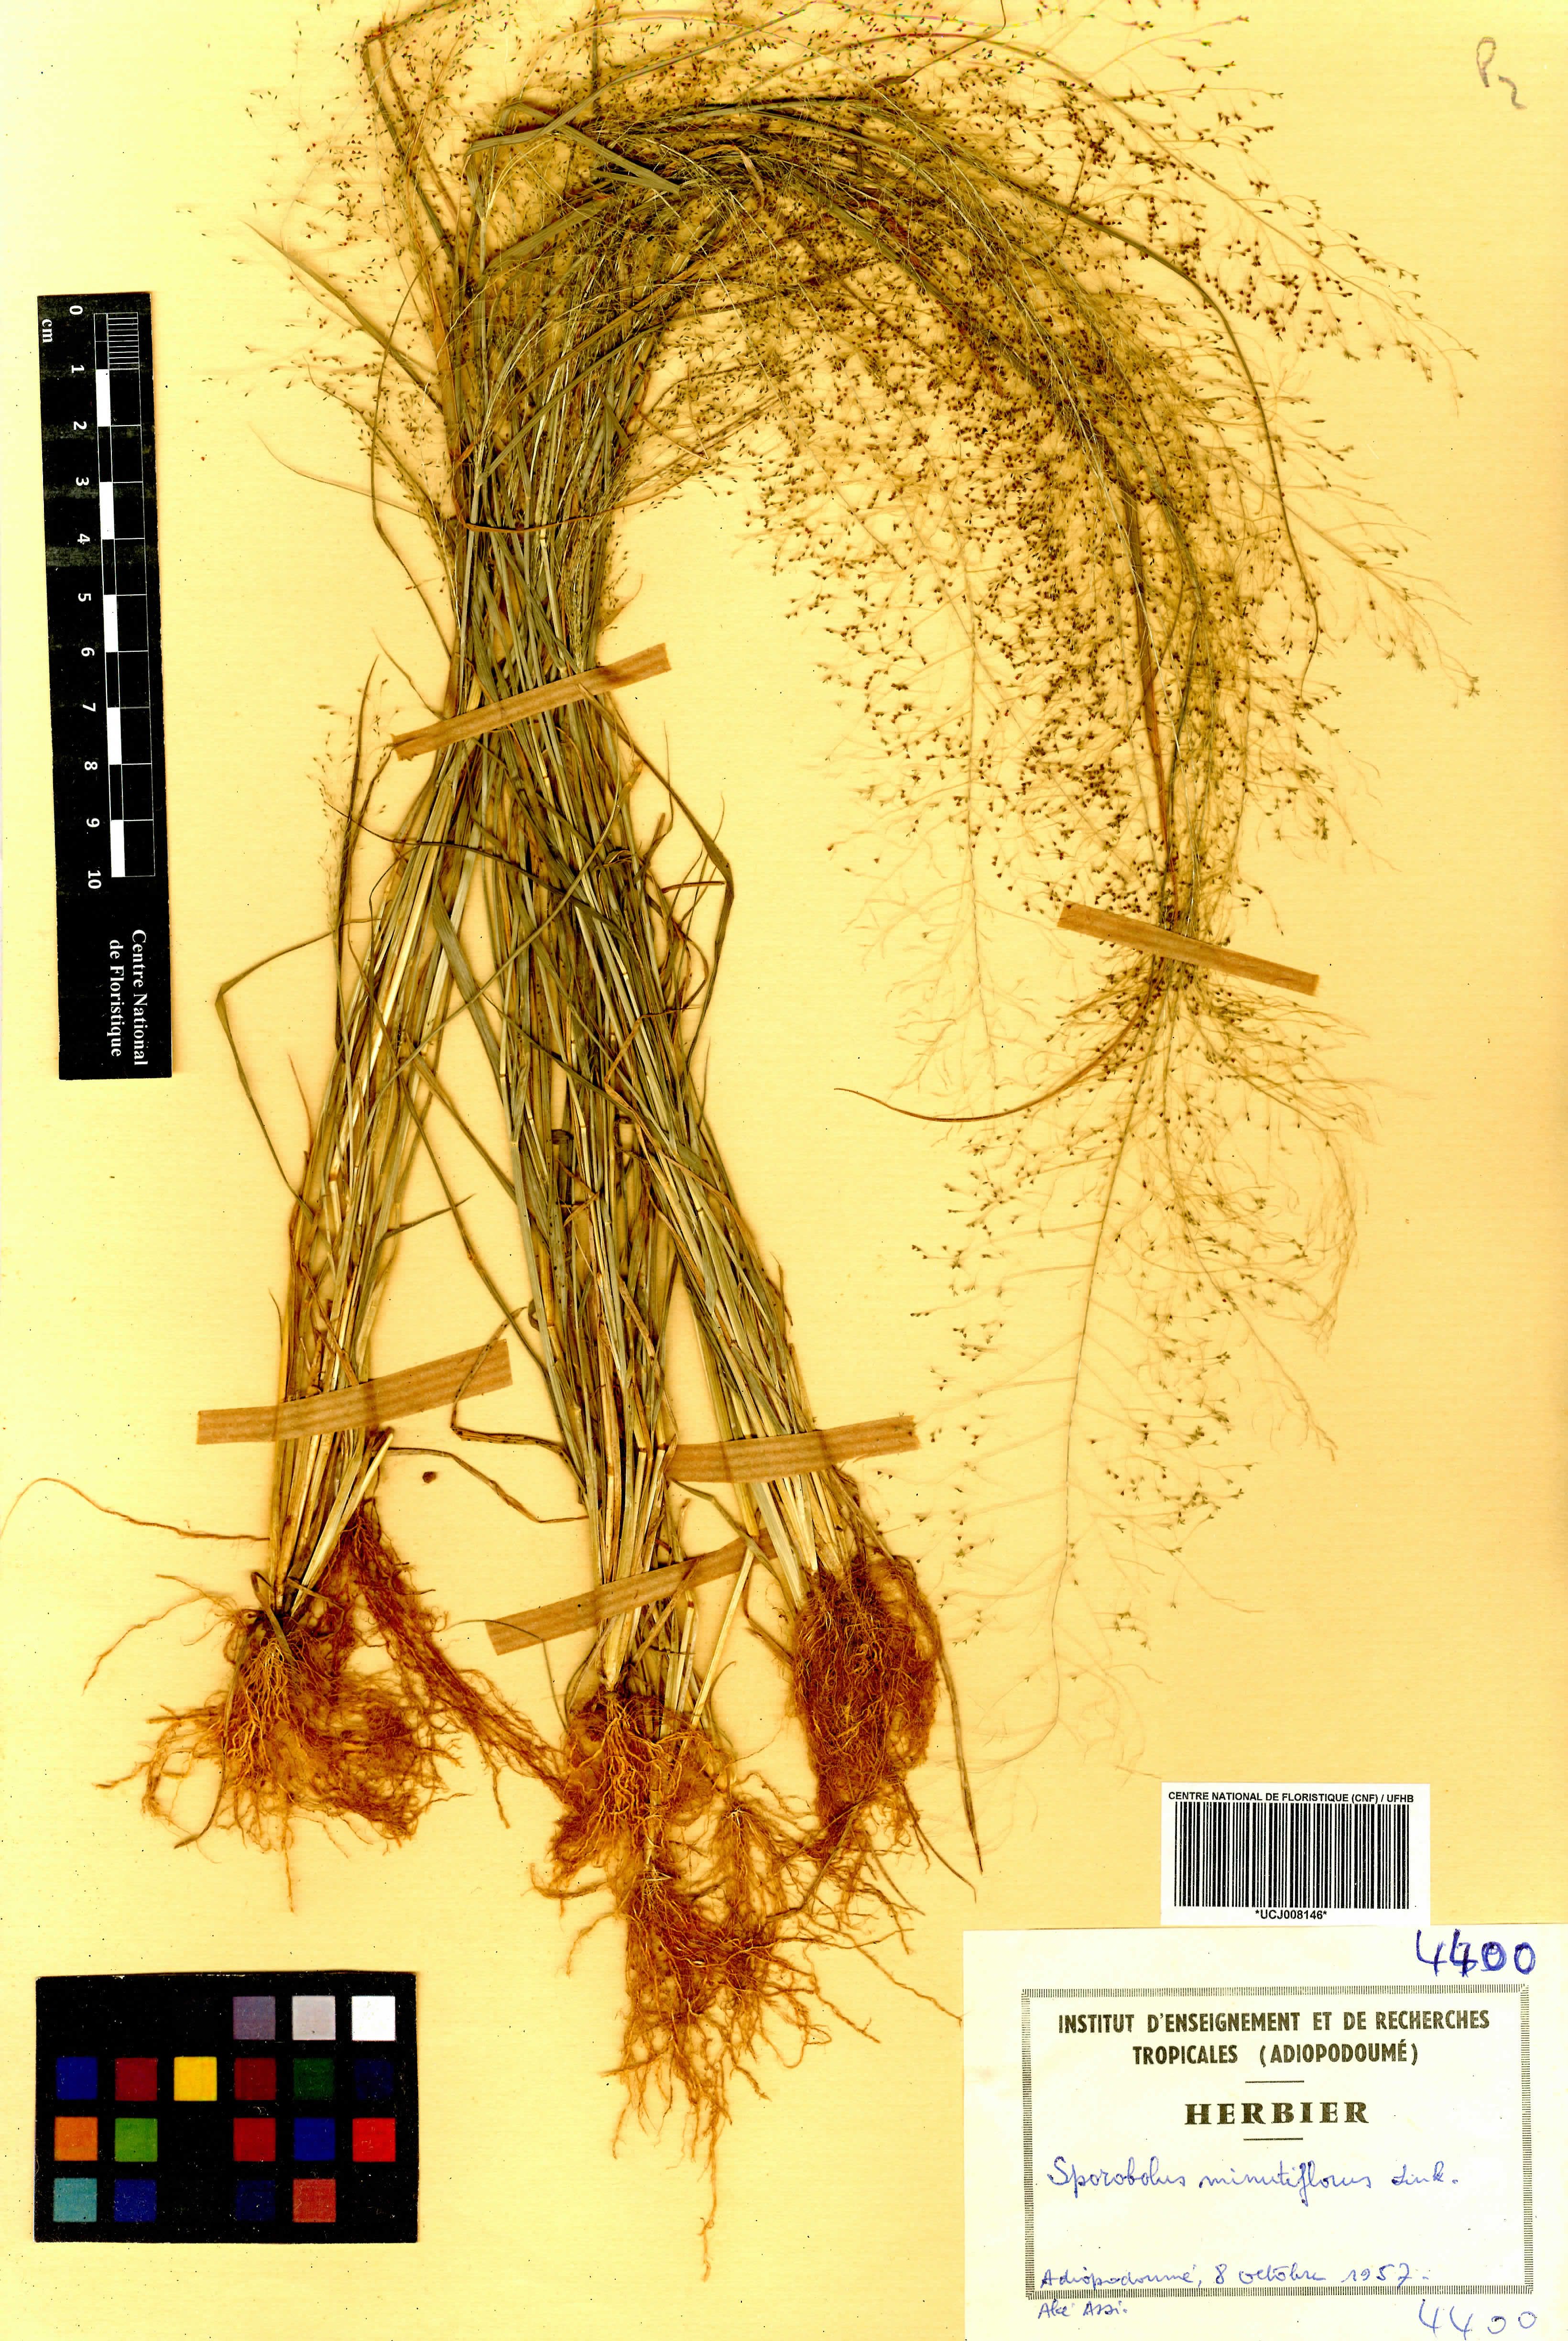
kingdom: Plantae
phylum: Tracheophyta
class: Liliopsida
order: Poales
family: Poaceae
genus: Sporobolus
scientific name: Sporobolus tenuissimus
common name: Tropical dropseed
